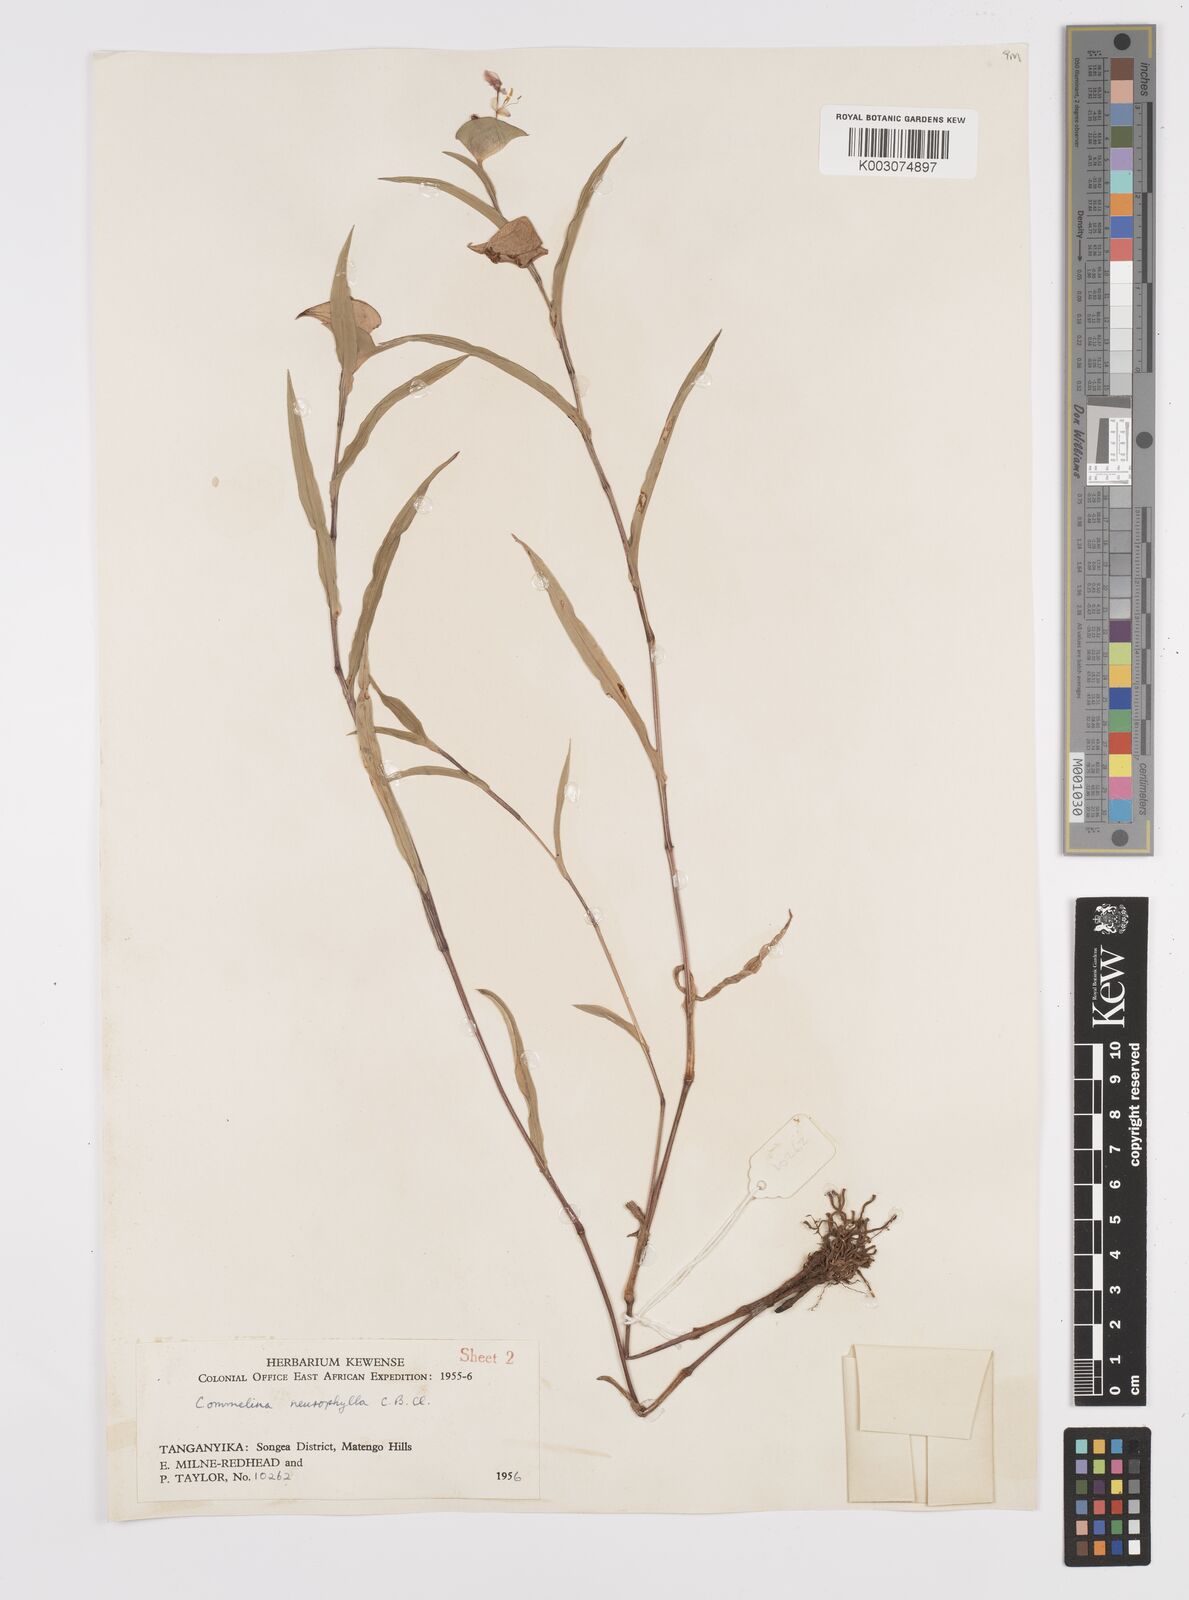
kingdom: Plantae
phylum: Tracheophyta
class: Liliopsida
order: Commelinales
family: Commelinaceae
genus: Commelina
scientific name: Commelina neurophylla
